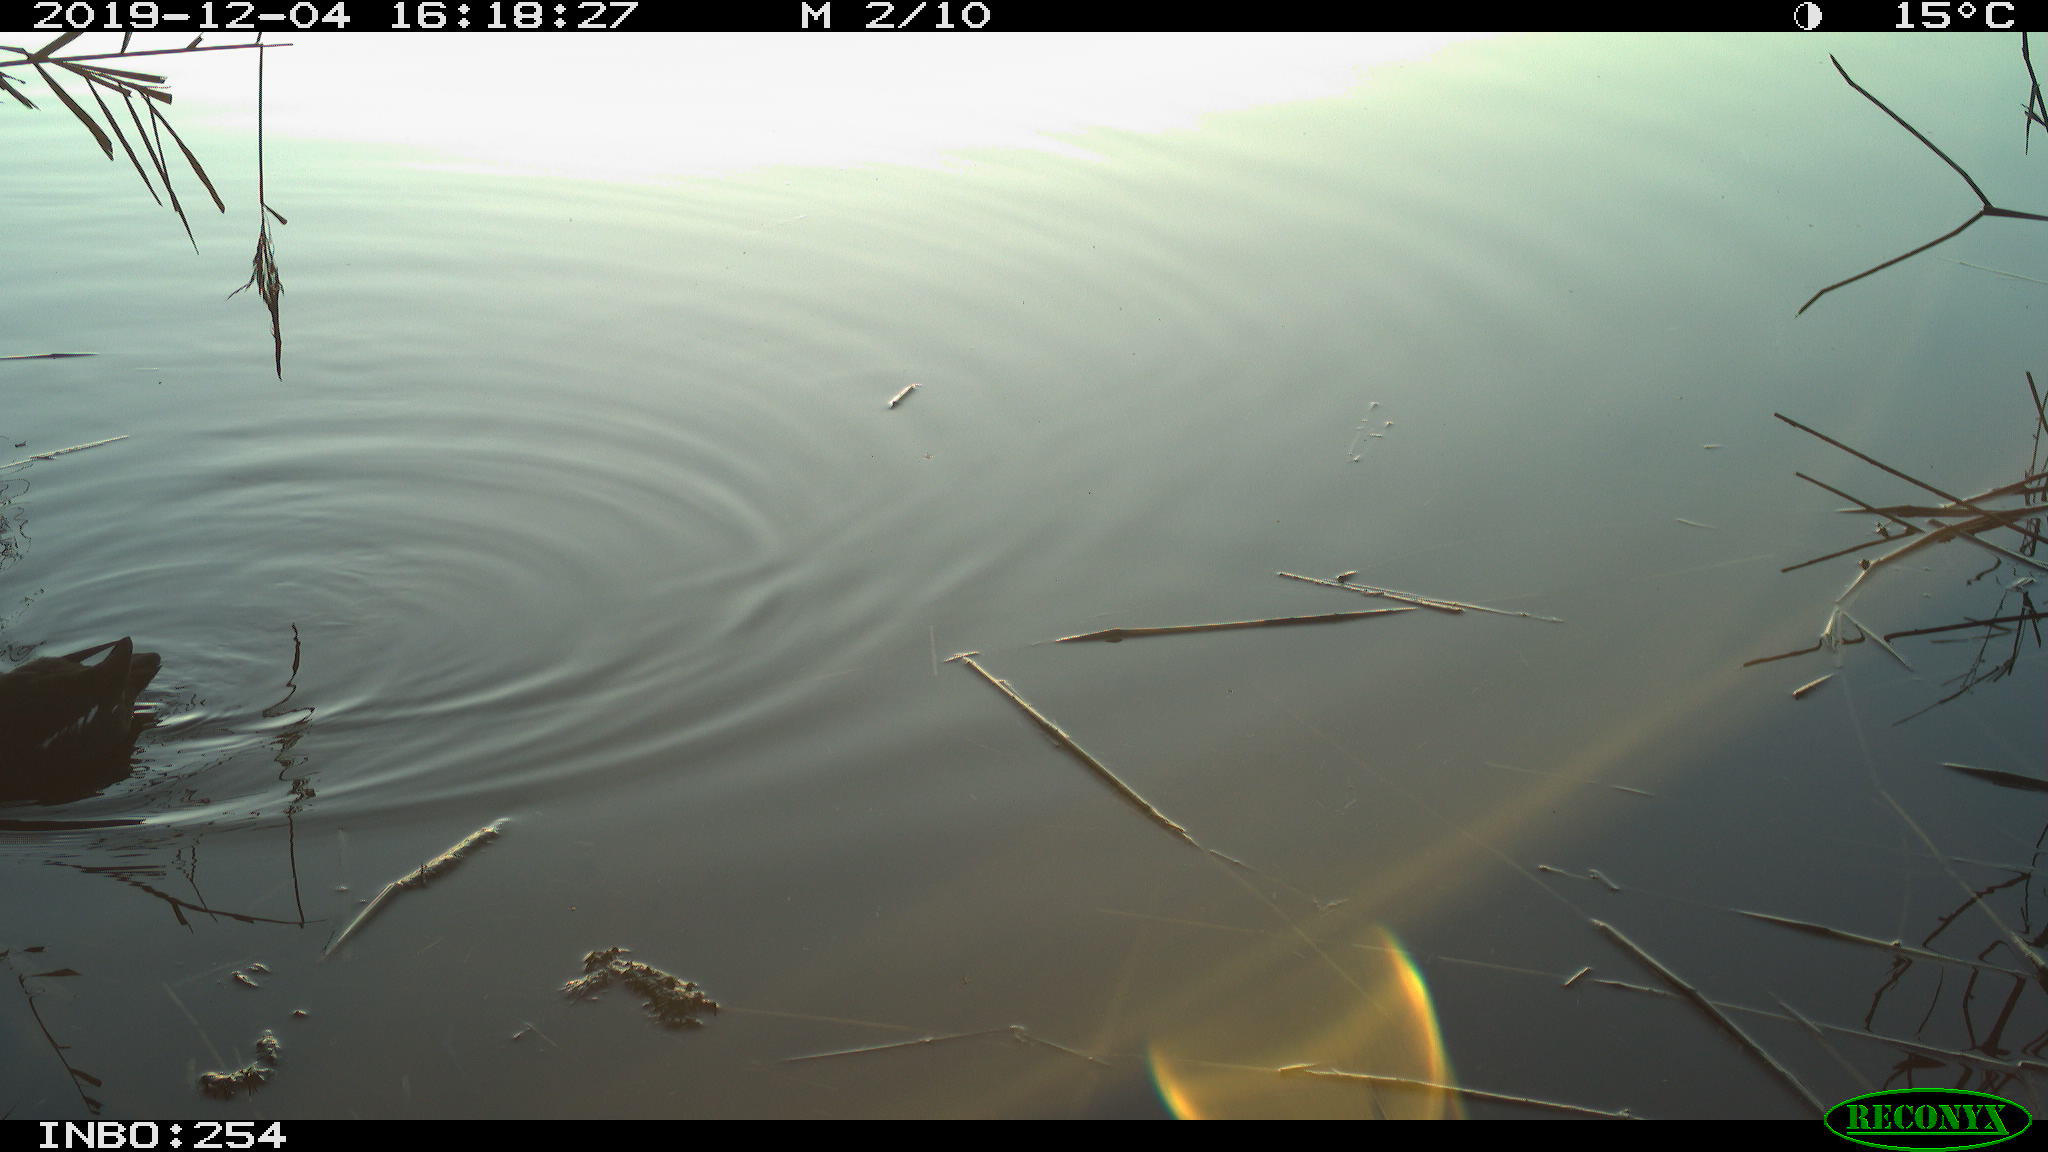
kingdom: Animalia
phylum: Chordata
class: Aves
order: Gruiformes
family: Rallidae
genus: Gallinula
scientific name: Gallinula chloropus
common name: Common moorhen
